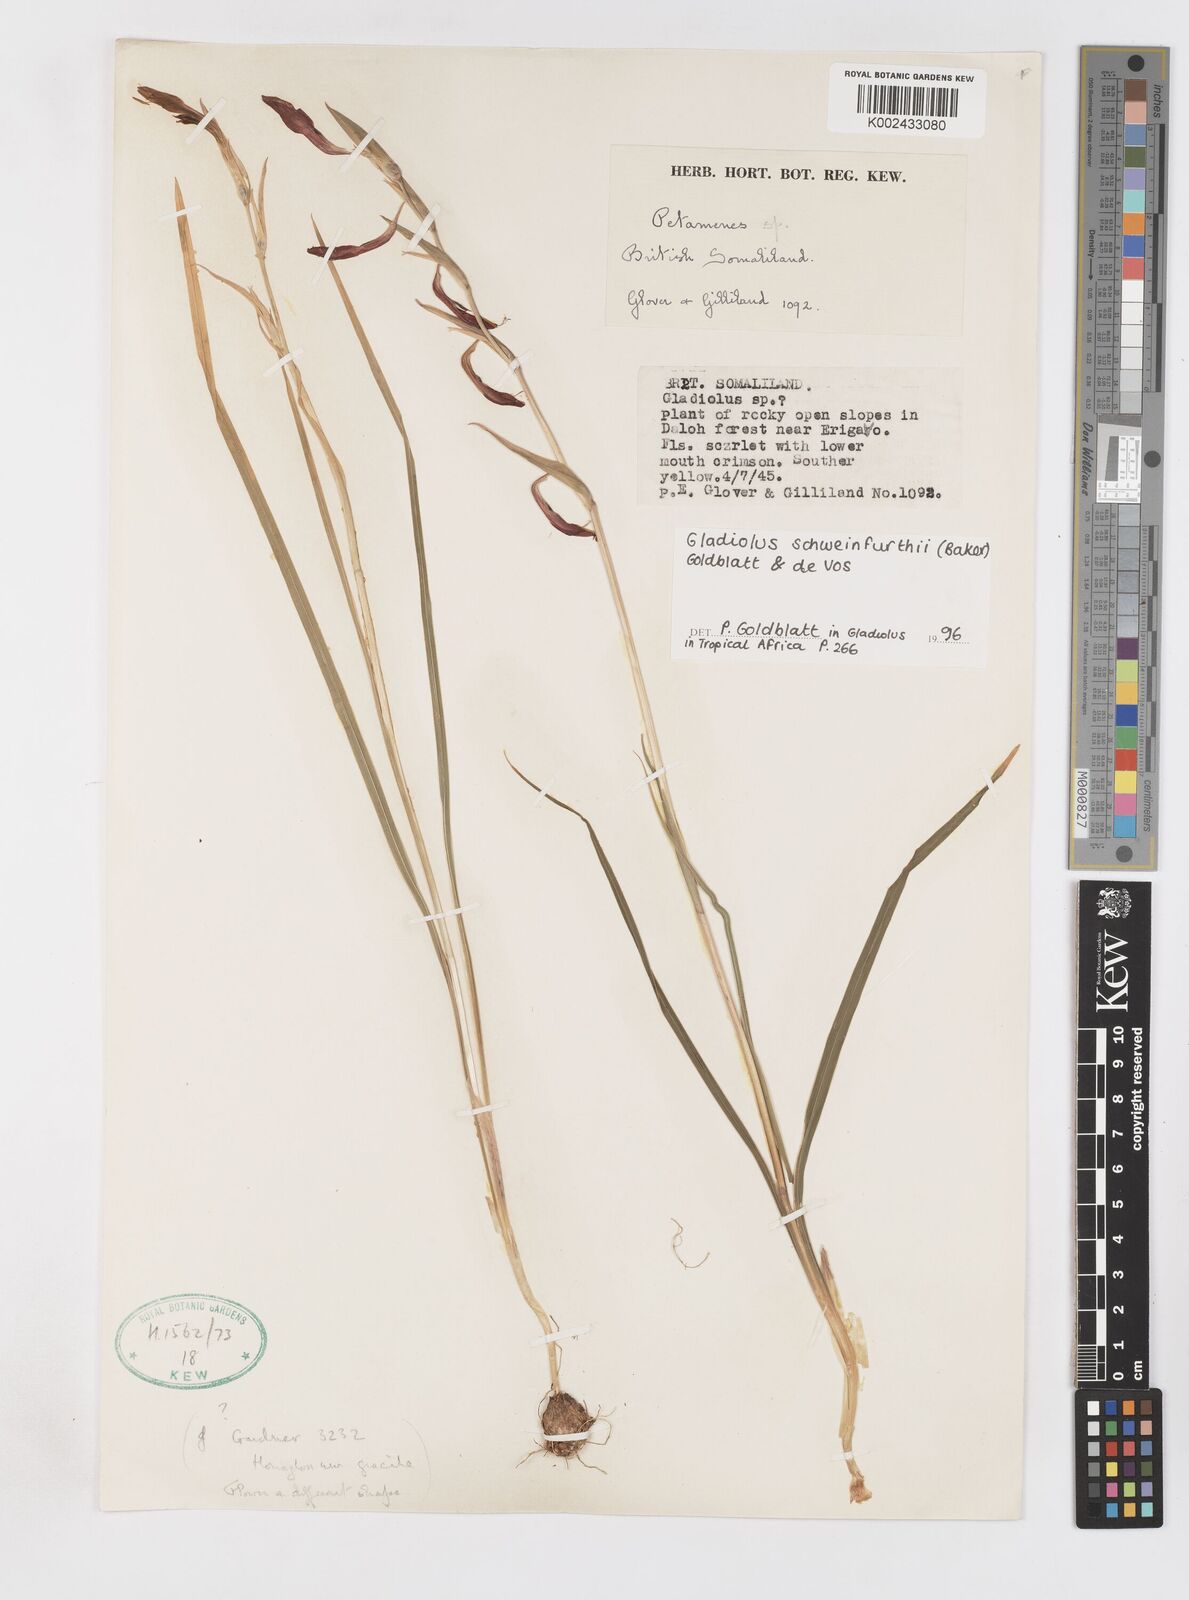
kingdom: Plantae
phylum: Tracheophyta
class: Liliopsida
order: Asparagales
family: Iridaceae
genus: Gladiolus
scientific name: Gladiolus schweinfurthii
